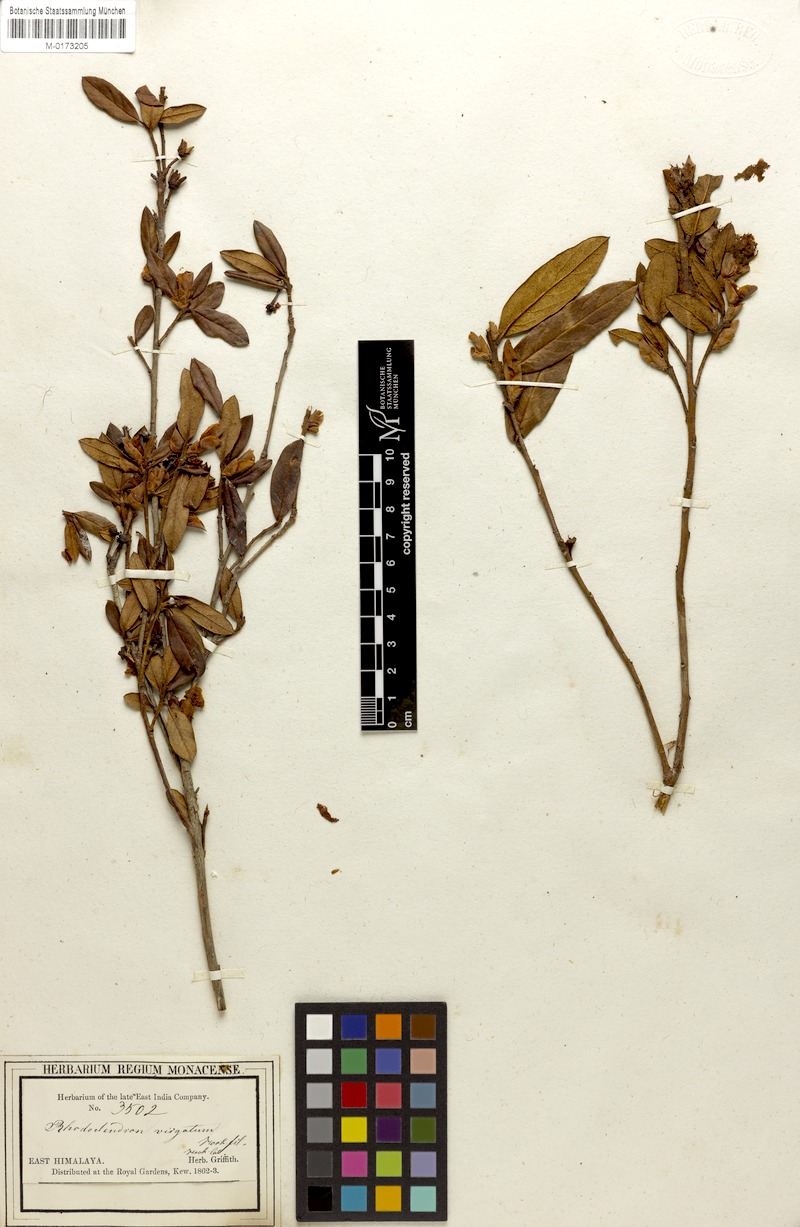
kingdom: Plantae
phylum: Tracheophyta
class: Magnoliopsida
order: Ericales
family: Ericaceae
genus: Rhododendron
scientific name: Rhododendron virgatum
